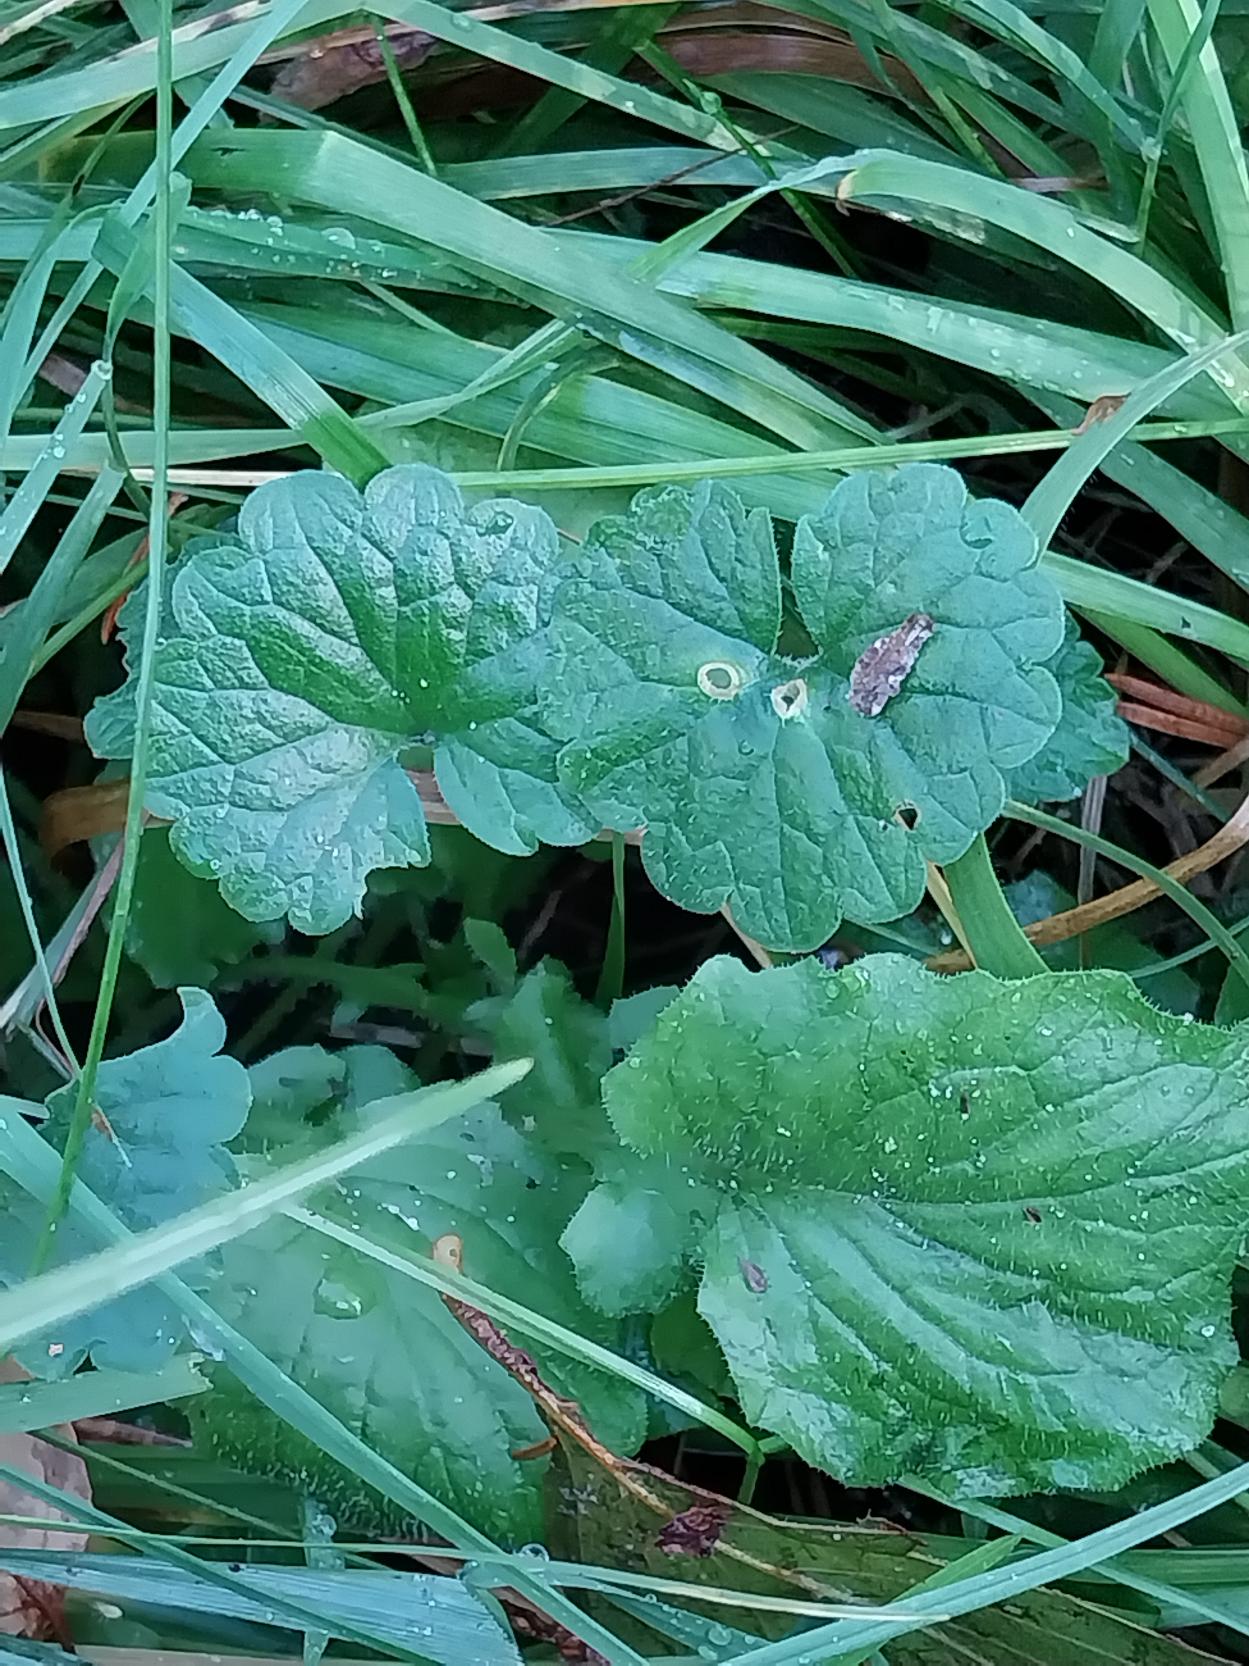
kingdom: Plantae
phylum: Tracheophyta
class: Magnoliopsida
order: Lamiales
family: Lamiaceae
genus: Glechoma
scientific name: Glechoma hederacea
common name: Korsknap
